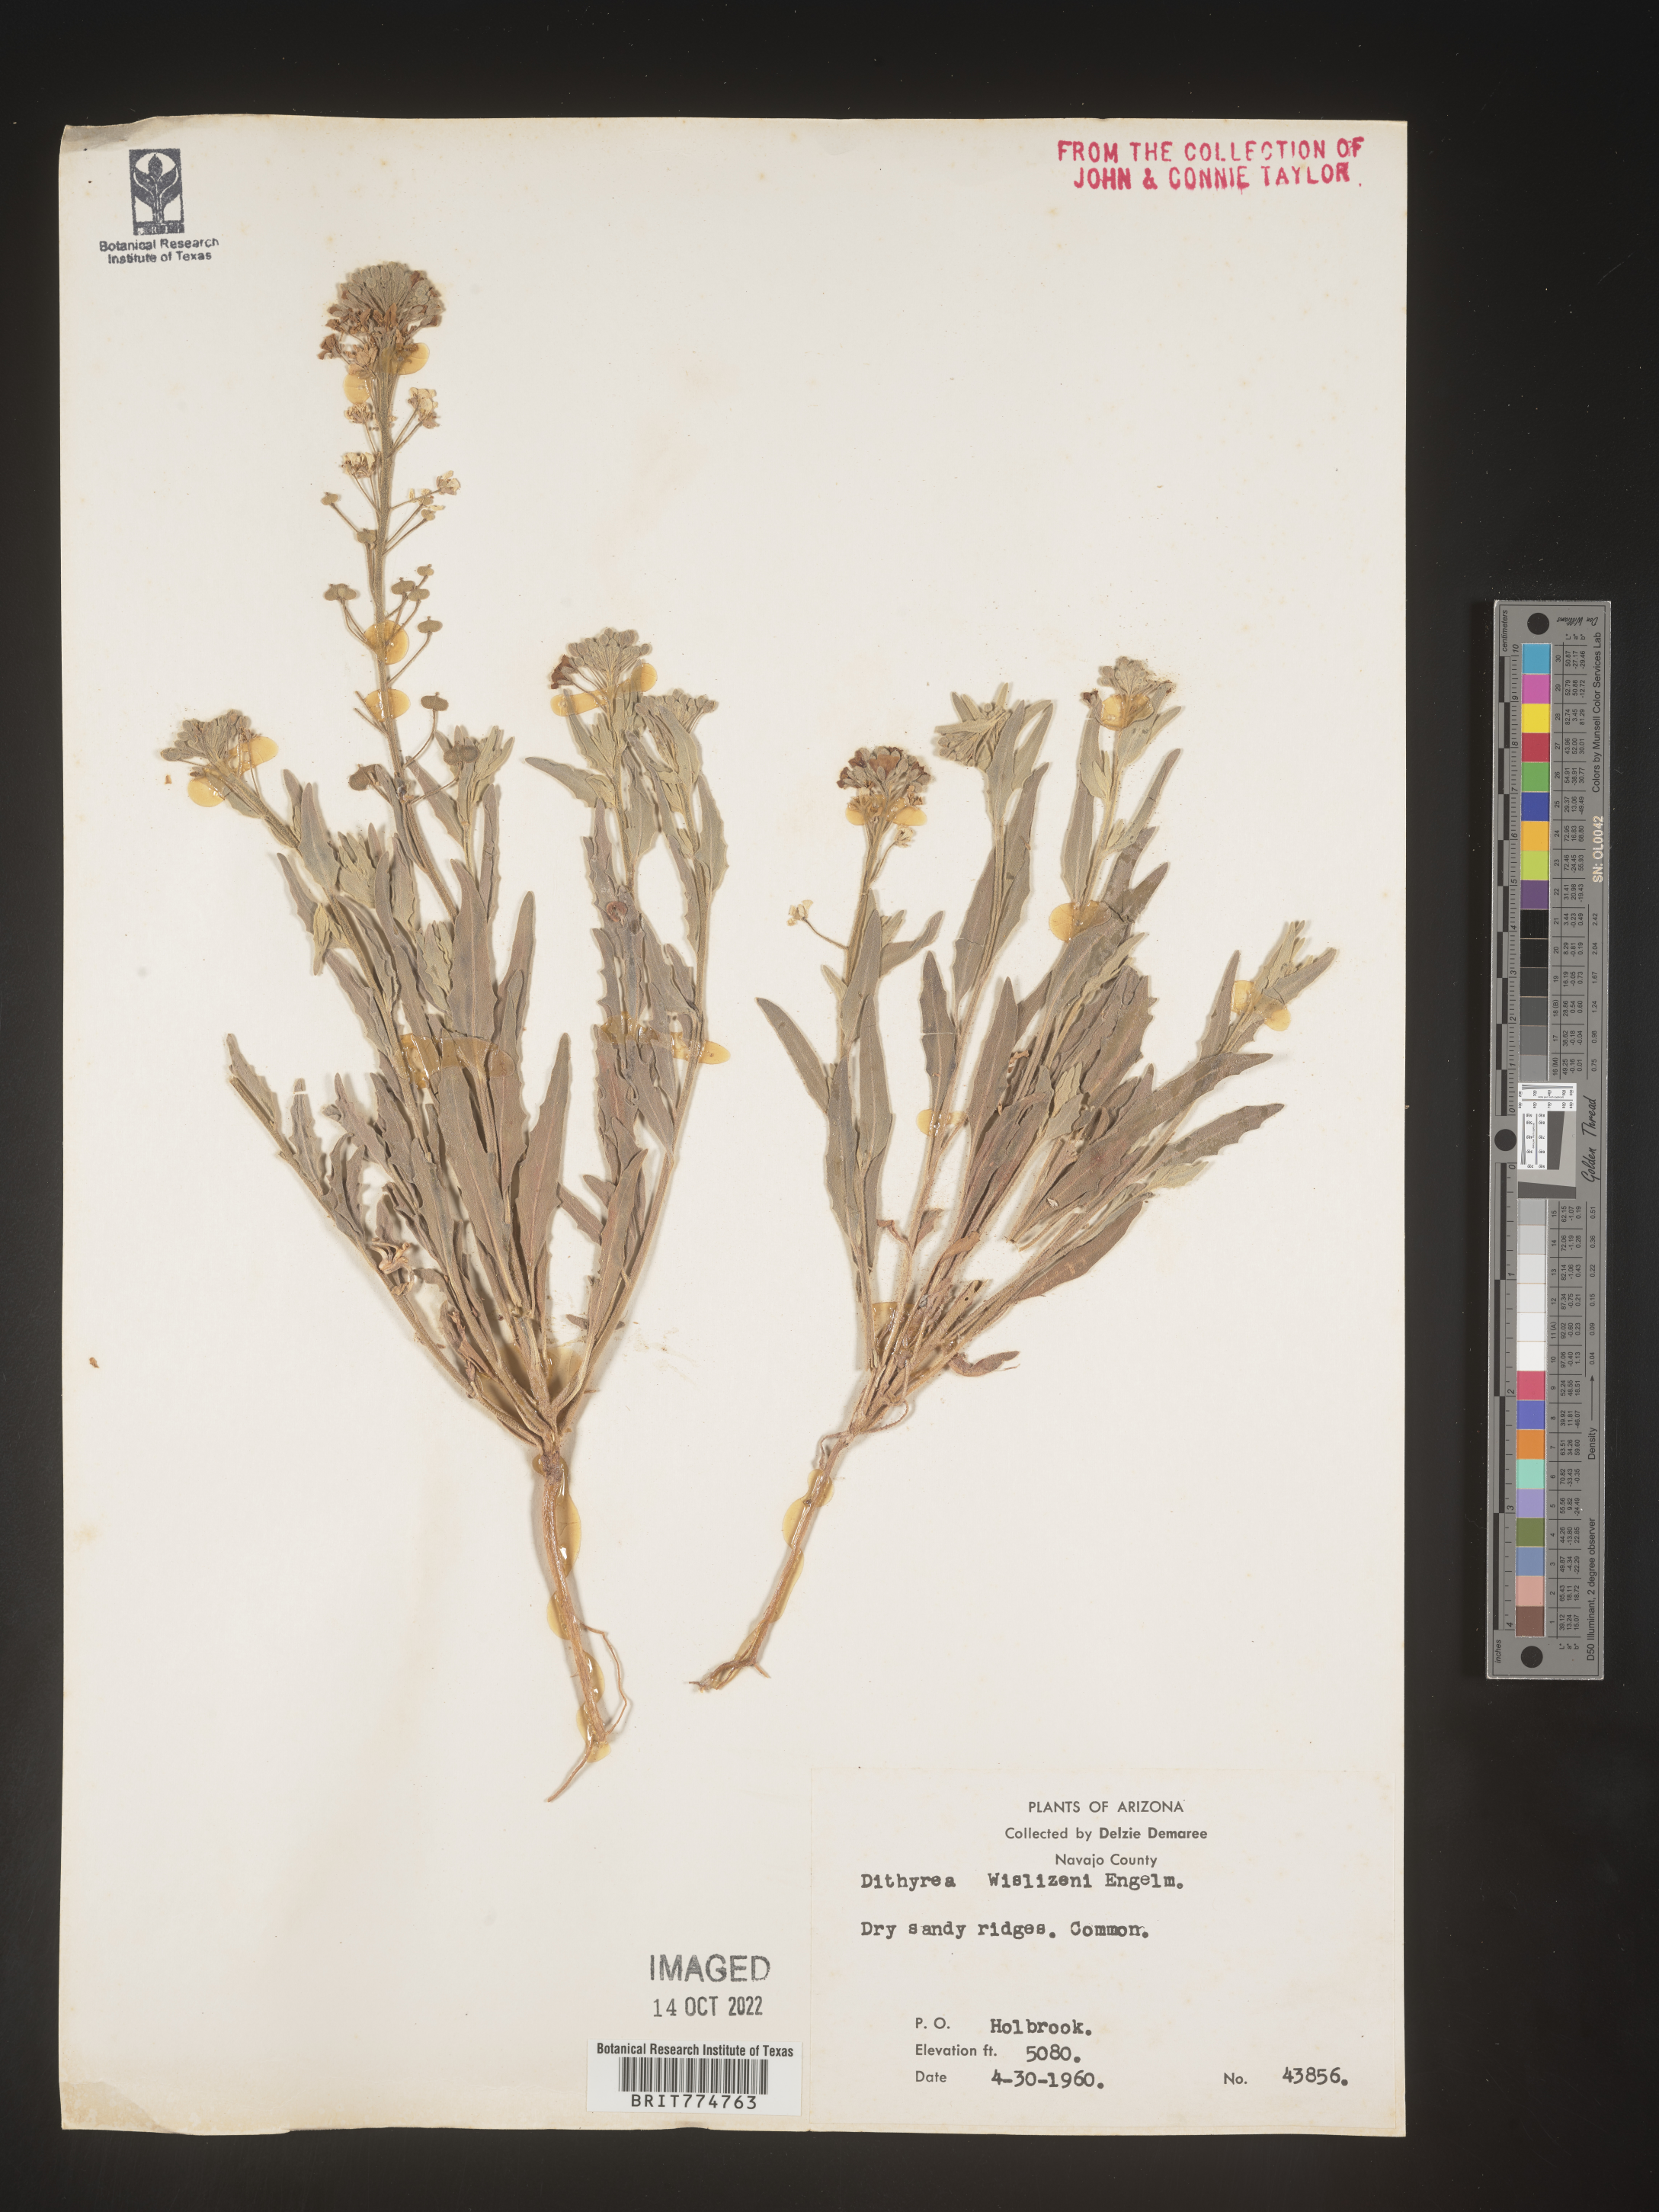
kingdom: Plantae
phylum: Tracheophyta
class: Magnoliopsida
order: Brassicales
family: Brassicaceae
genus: Dithyrea
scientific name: Dithyrea californica
